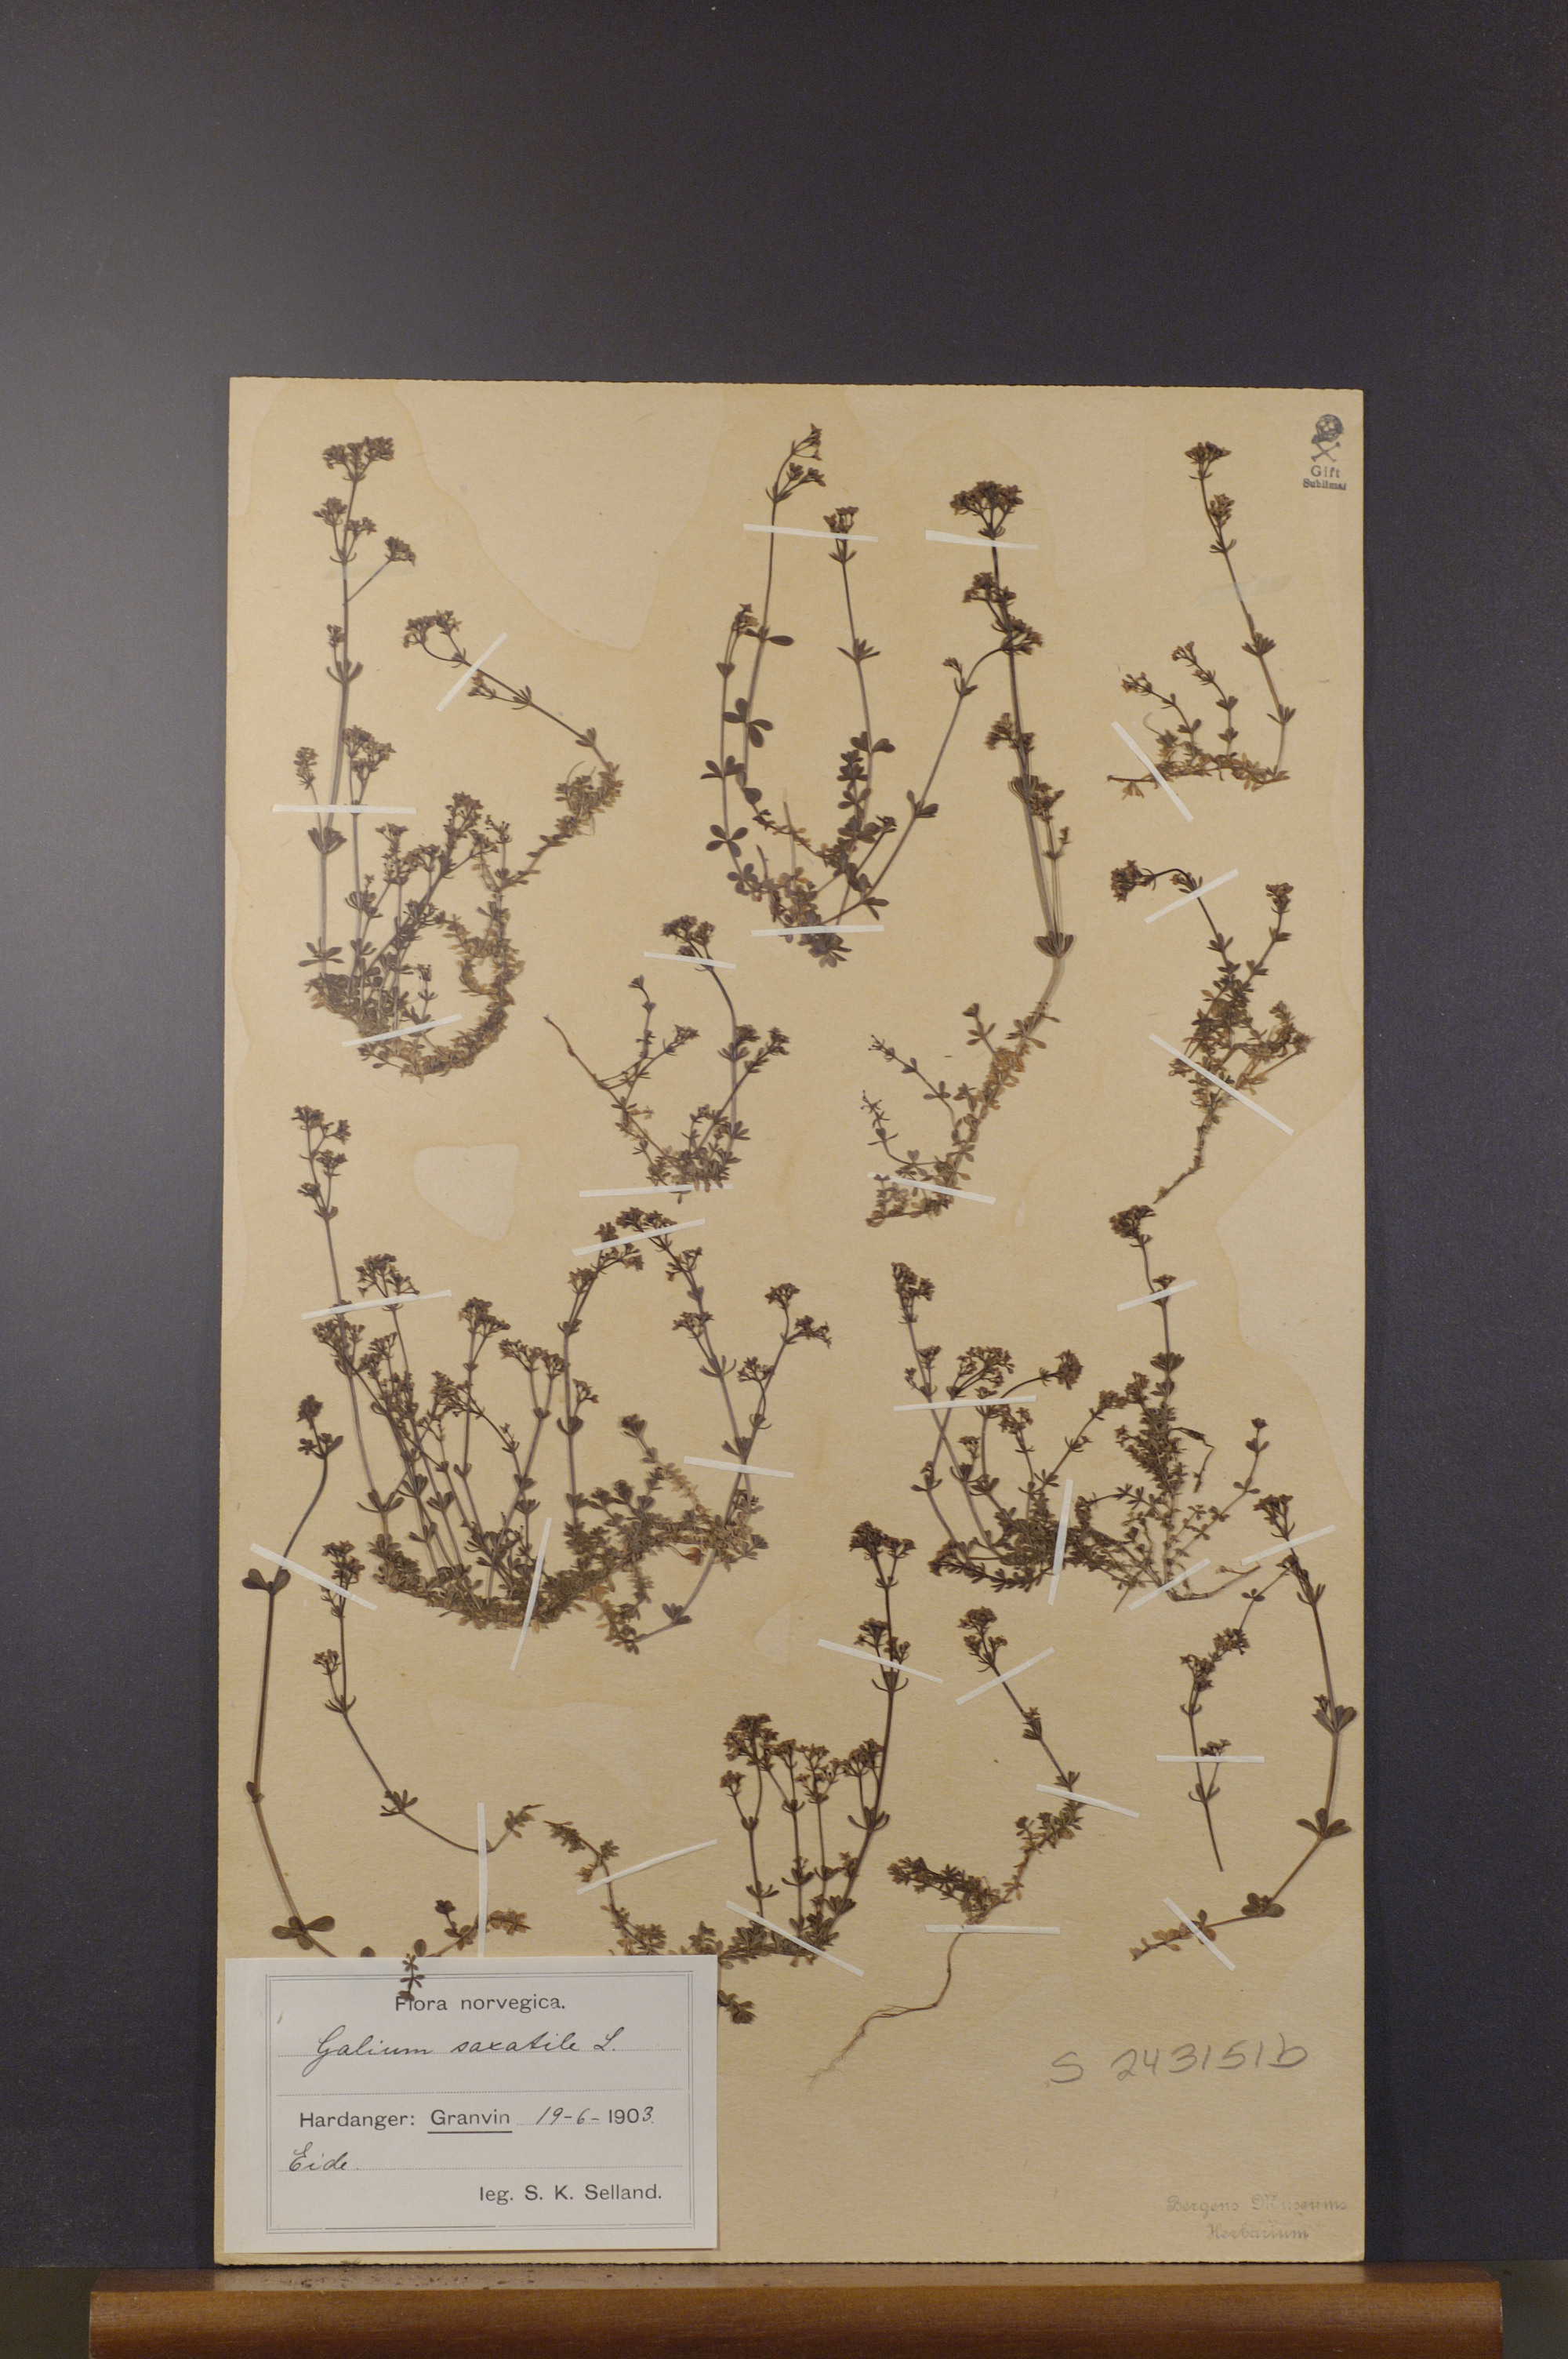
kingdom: Plantae
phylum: Tracheophyta
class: Magnoliopsida
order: Gentianales
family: Rubiaceae
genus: Galium
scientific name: Galium saxatile
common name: Heath bedstraw
